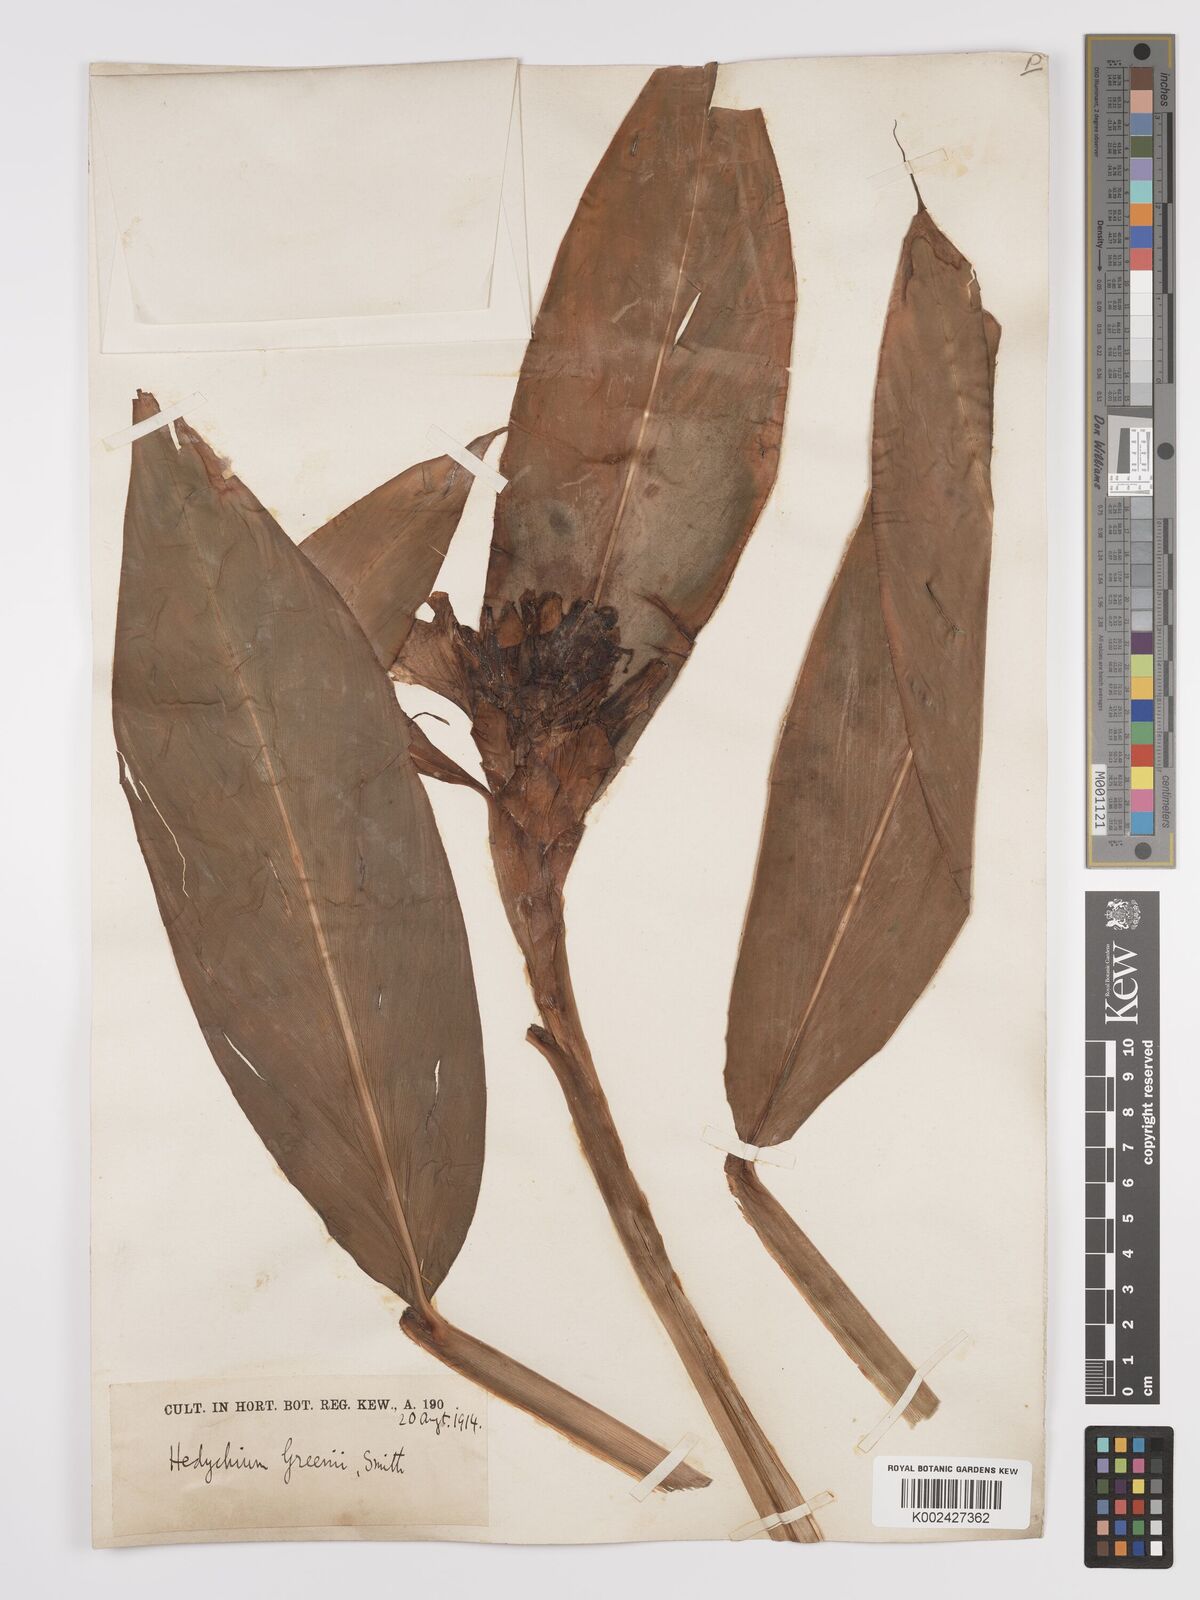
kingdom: Plantae
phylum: Tracheophyta
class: Liliopsida
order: Zingiberales
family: Zingiberaceae
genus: Hedychium
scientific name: Hedychium greenii
